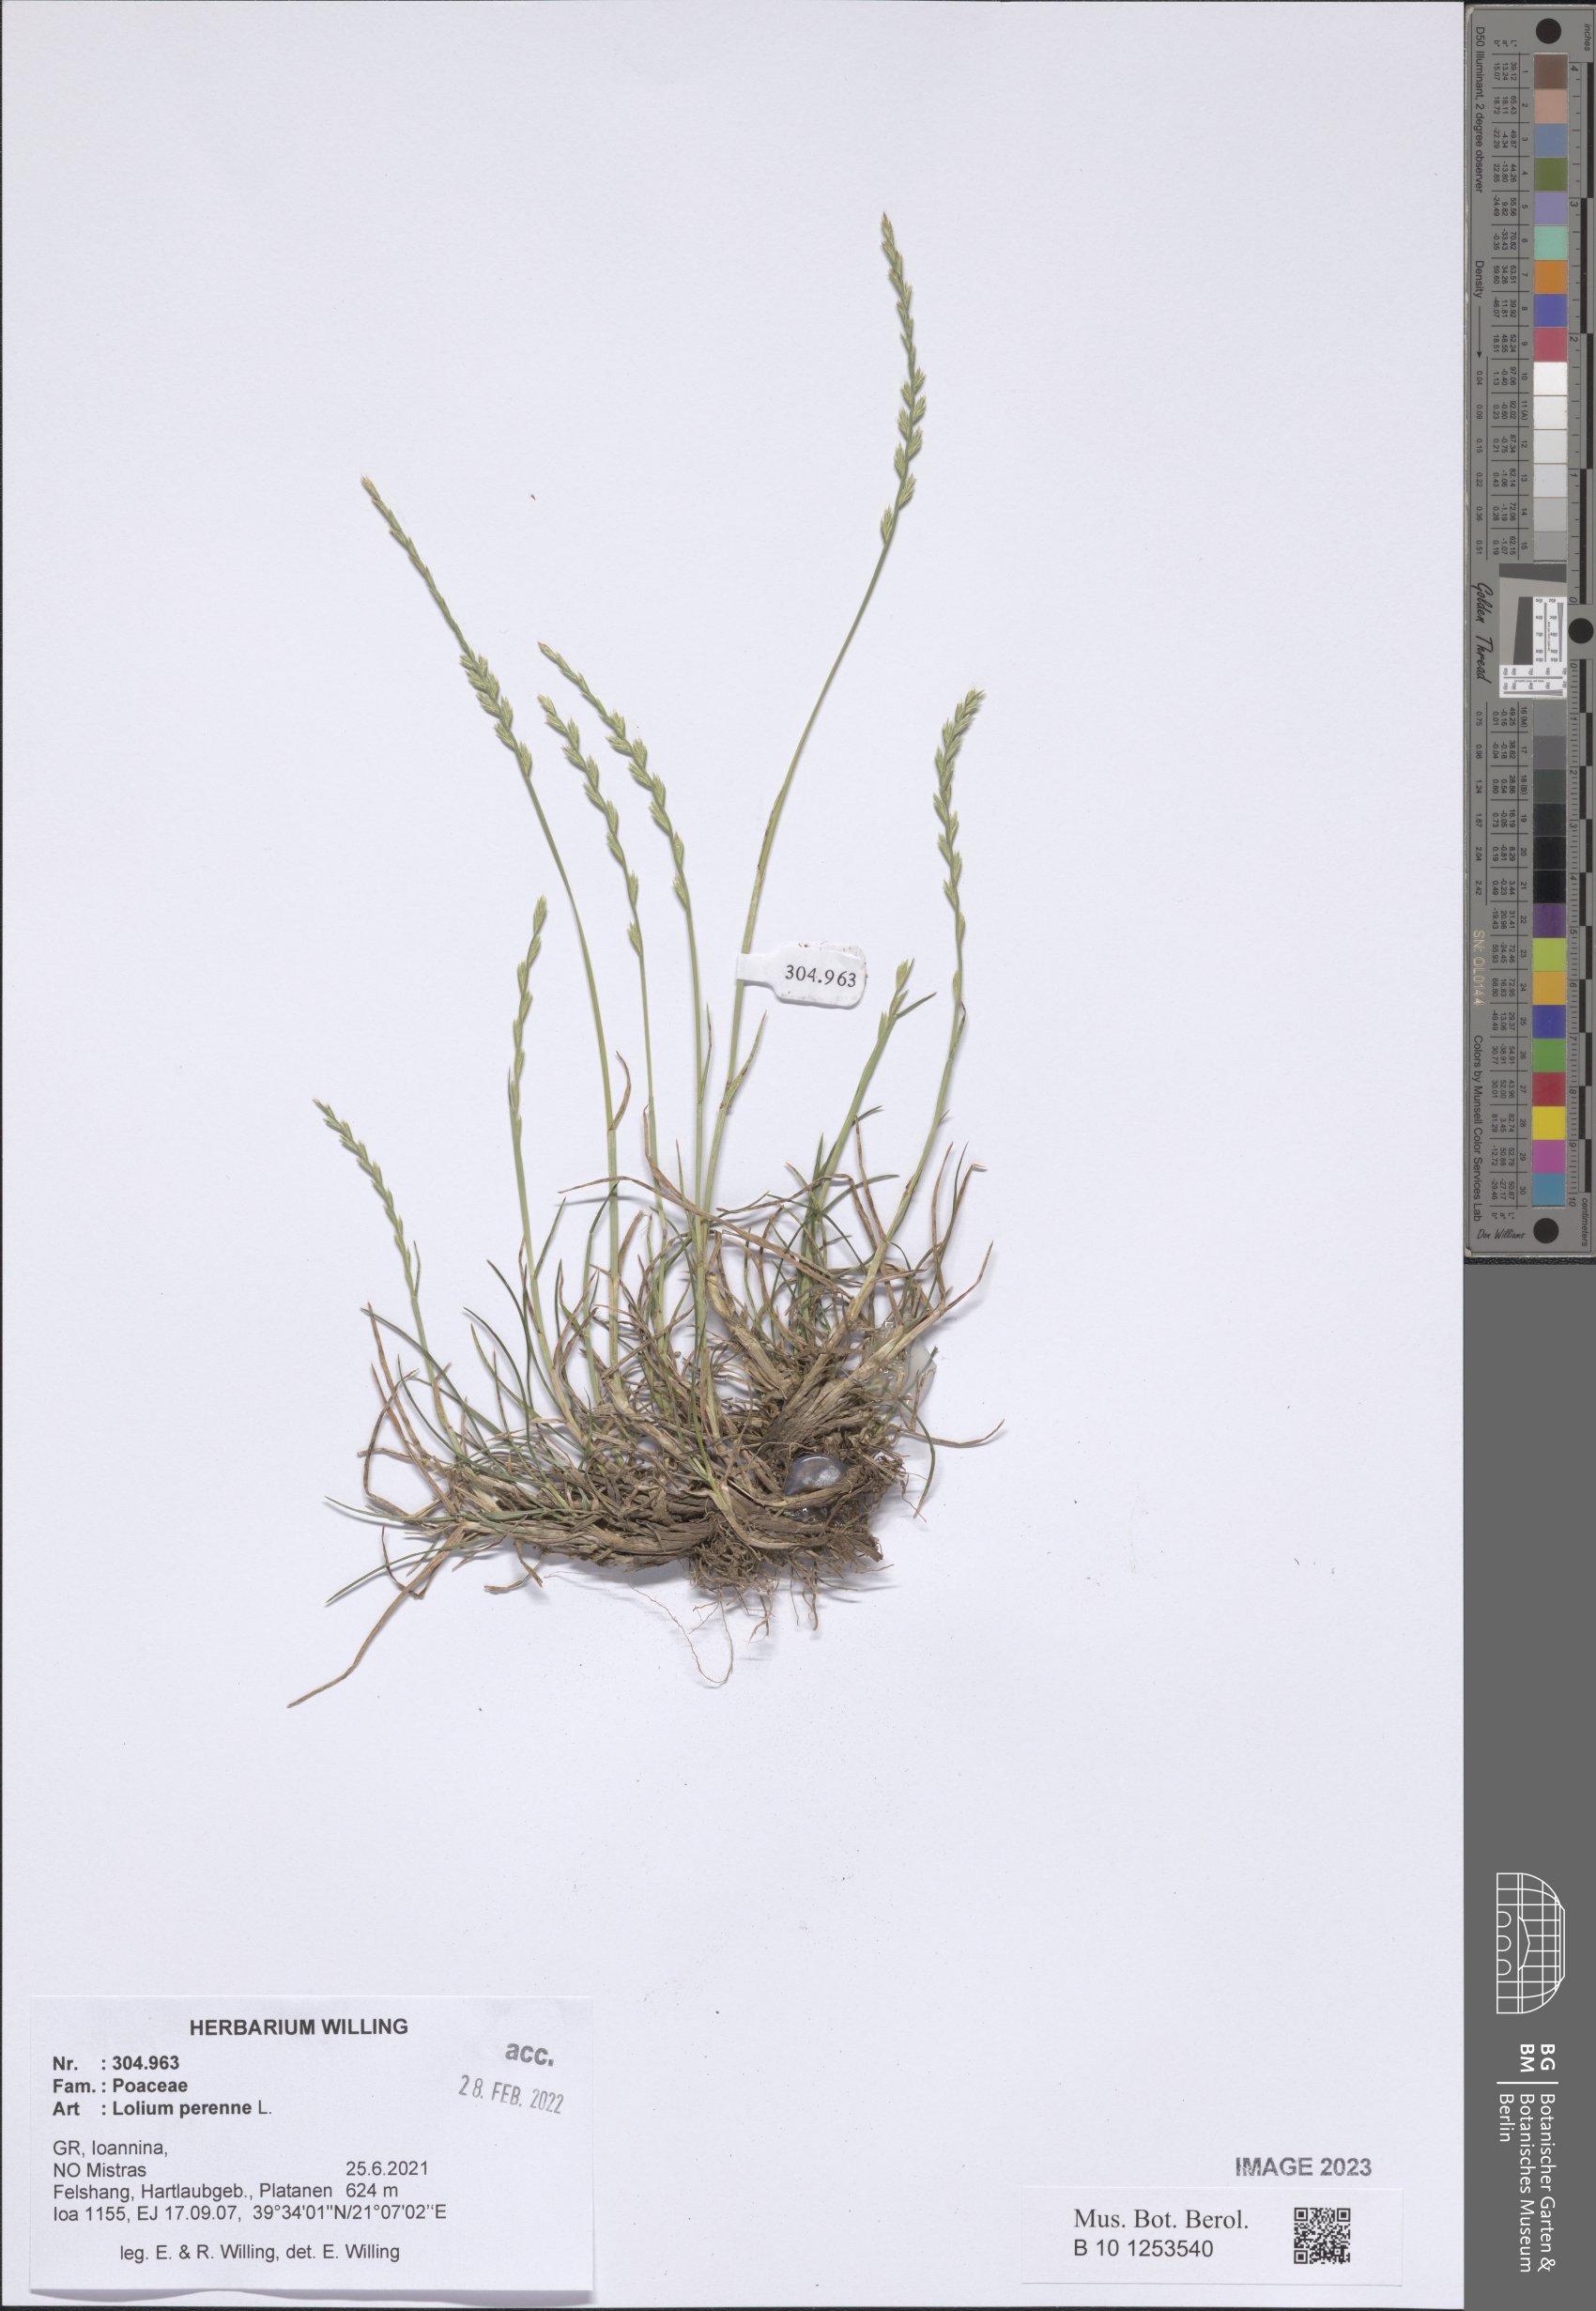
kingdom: Plantae
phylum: Tracheophyta
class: Liliopsida
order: Poales
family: Poaceae
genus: Lolium
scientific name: Lolium perenne
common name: Perennial ryegrass
